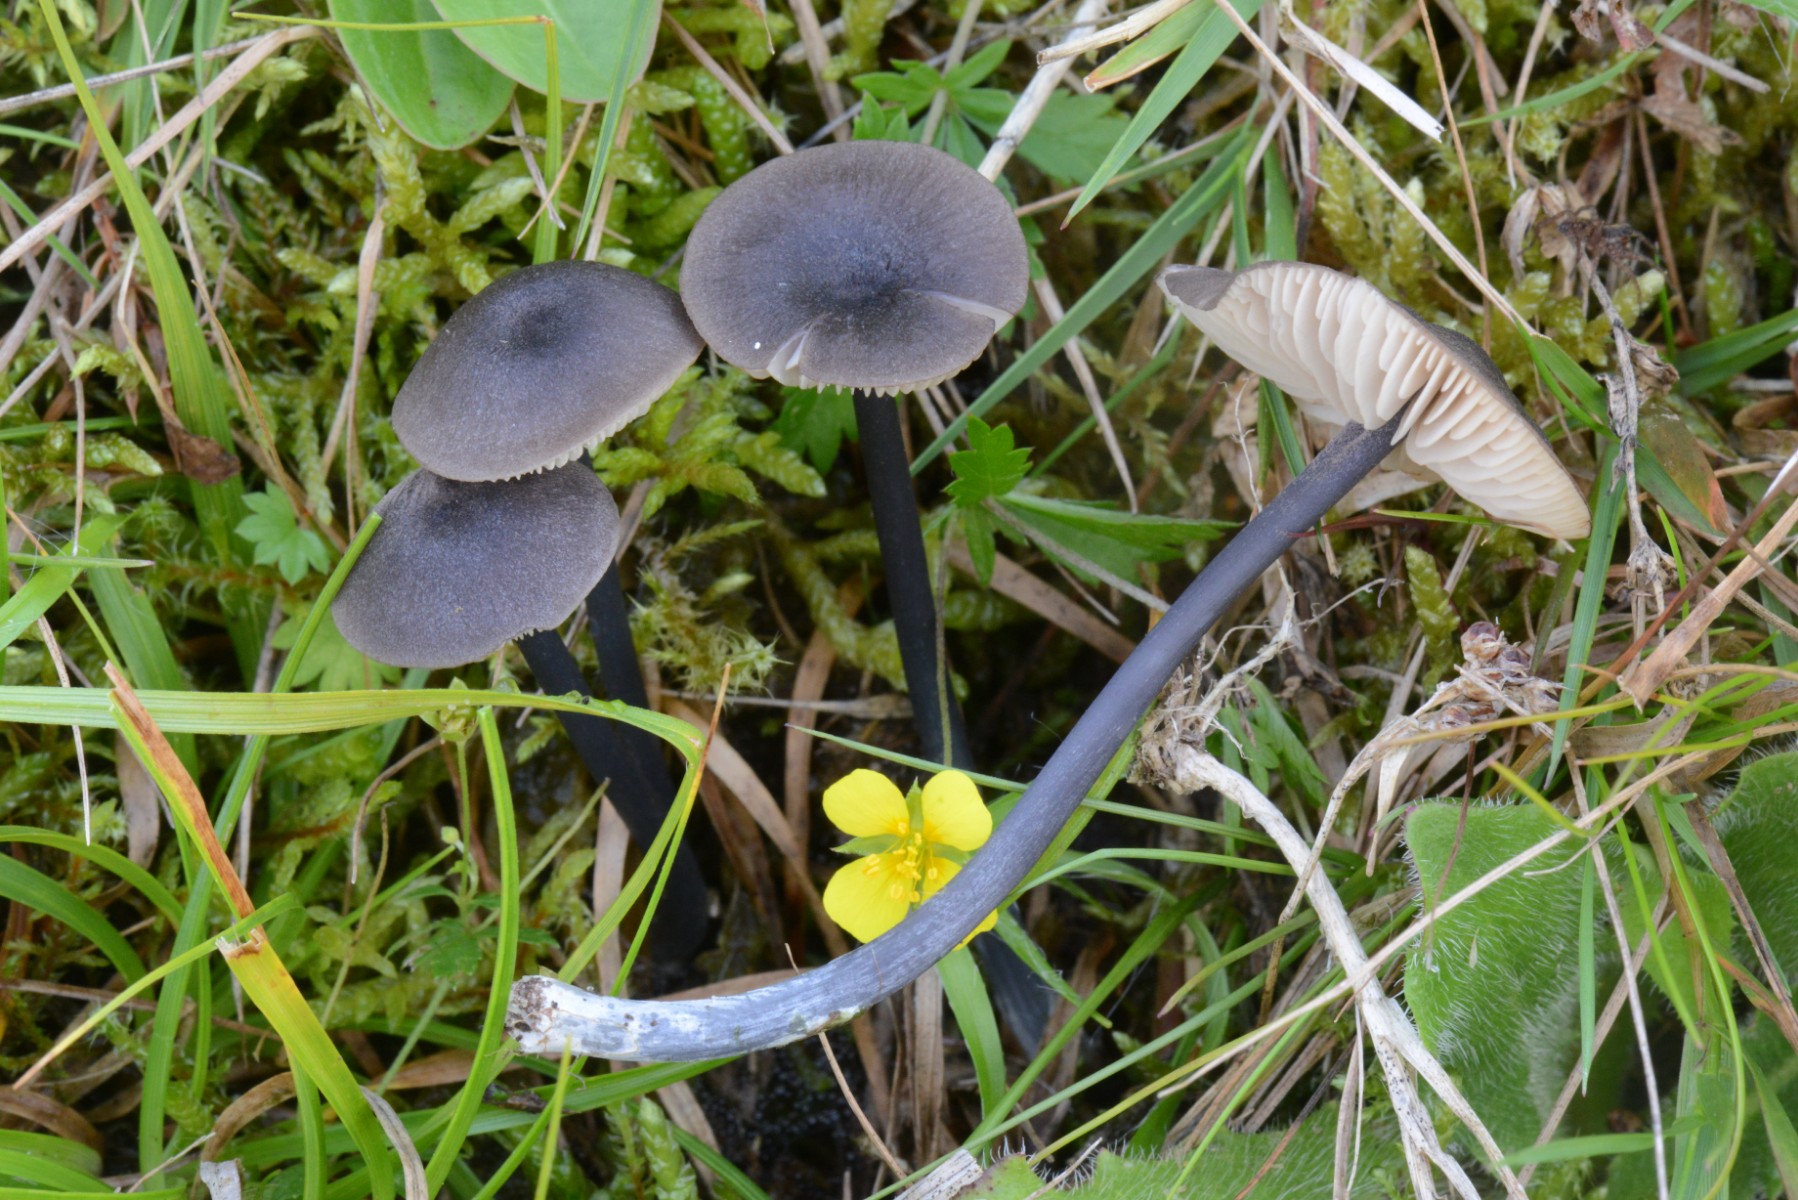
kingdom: Fungi
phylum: Basidiomycota
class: Agaricomycetes
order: Agaricales
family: Entolomataceae
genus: Entoloma
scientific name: Entoloma atrocoeruleum
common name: sortblå rødblad
